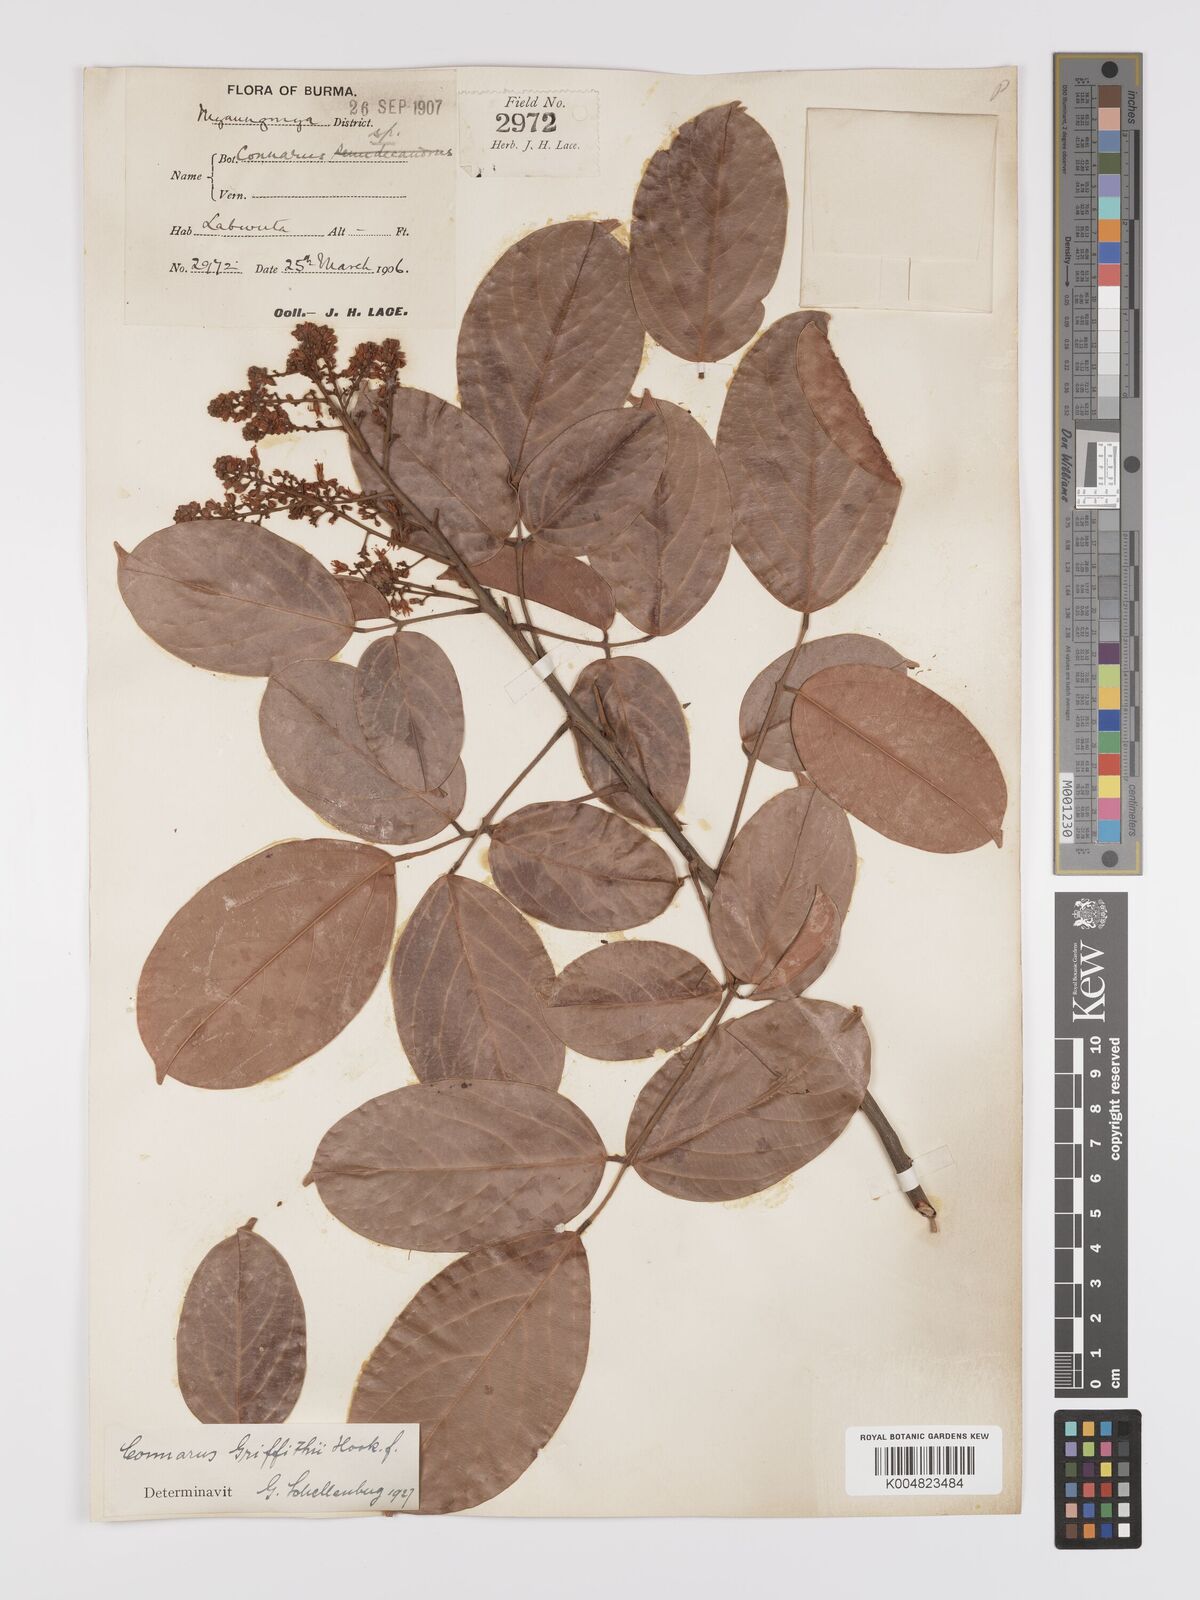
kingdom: Plantae
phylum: Tracheophyta
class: Magnoliopsida
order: Oxalidales
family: Connaraceae
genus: Connarus
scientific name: Connarus semidecandrus
